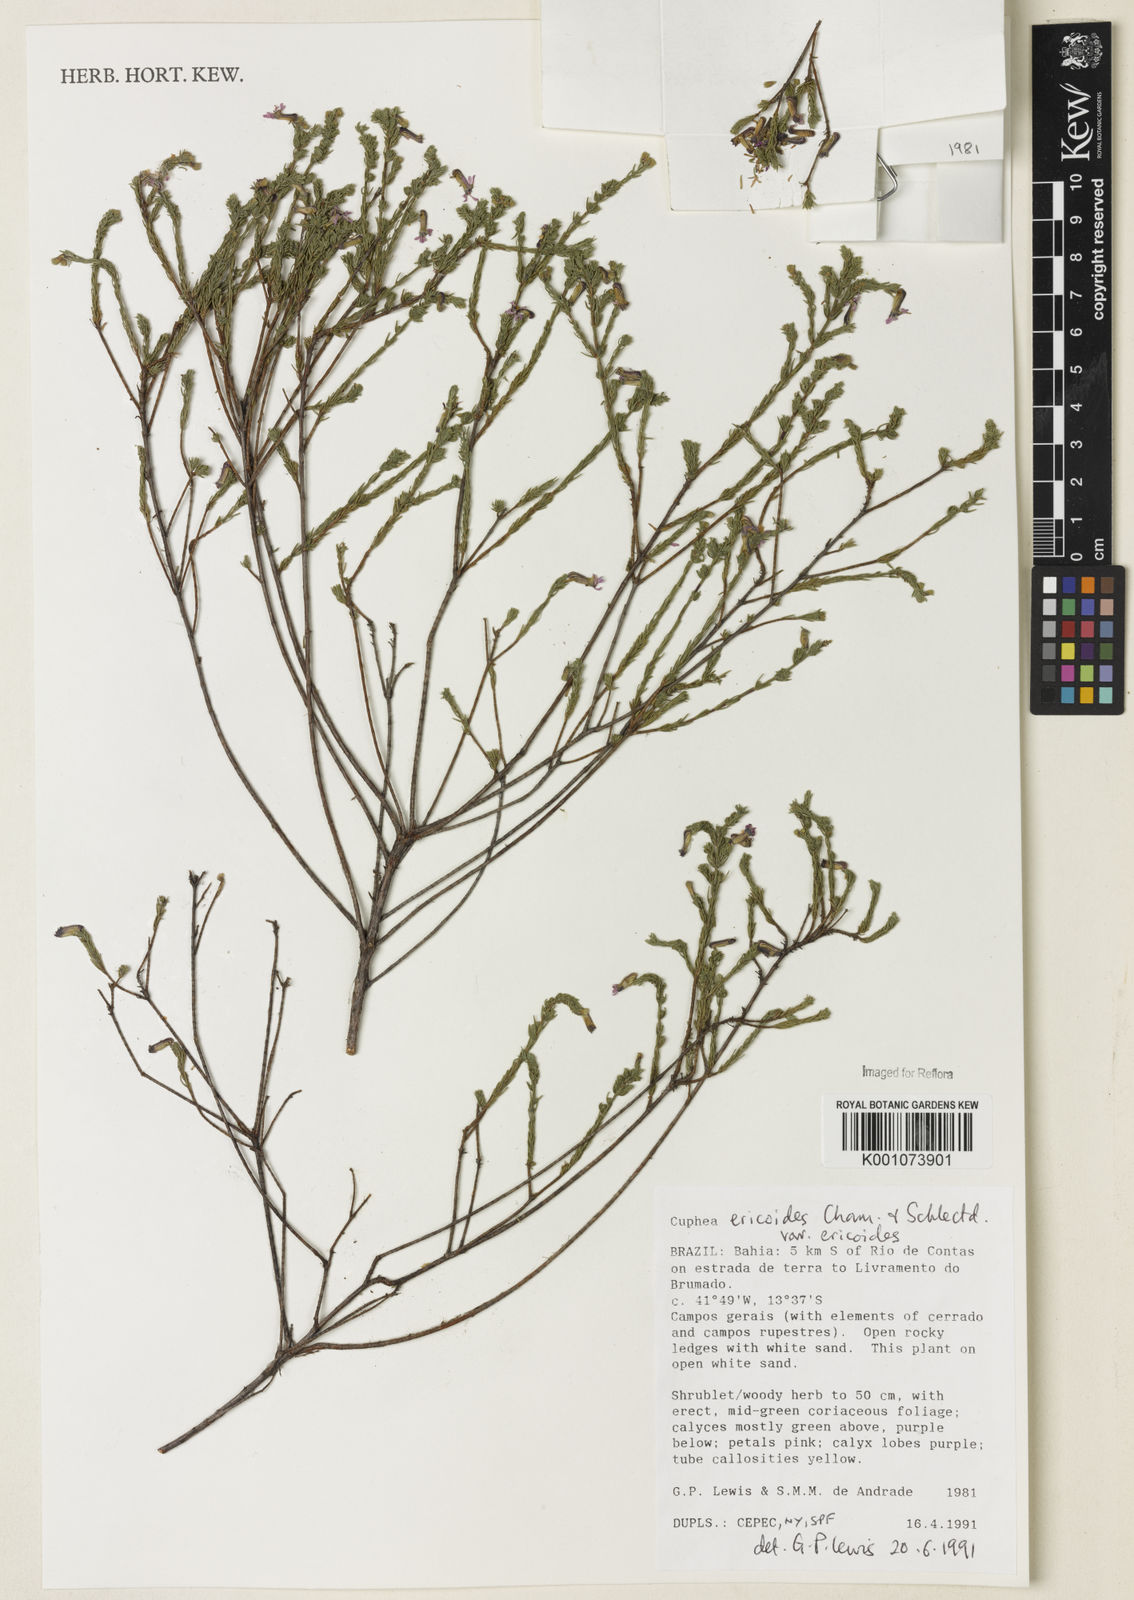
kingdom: Plantae
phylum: Tracheophyta
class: Magnoliopsida
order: Myrtales
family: Lythraceae
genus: Cuphea
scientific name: Cuphea ericoides
